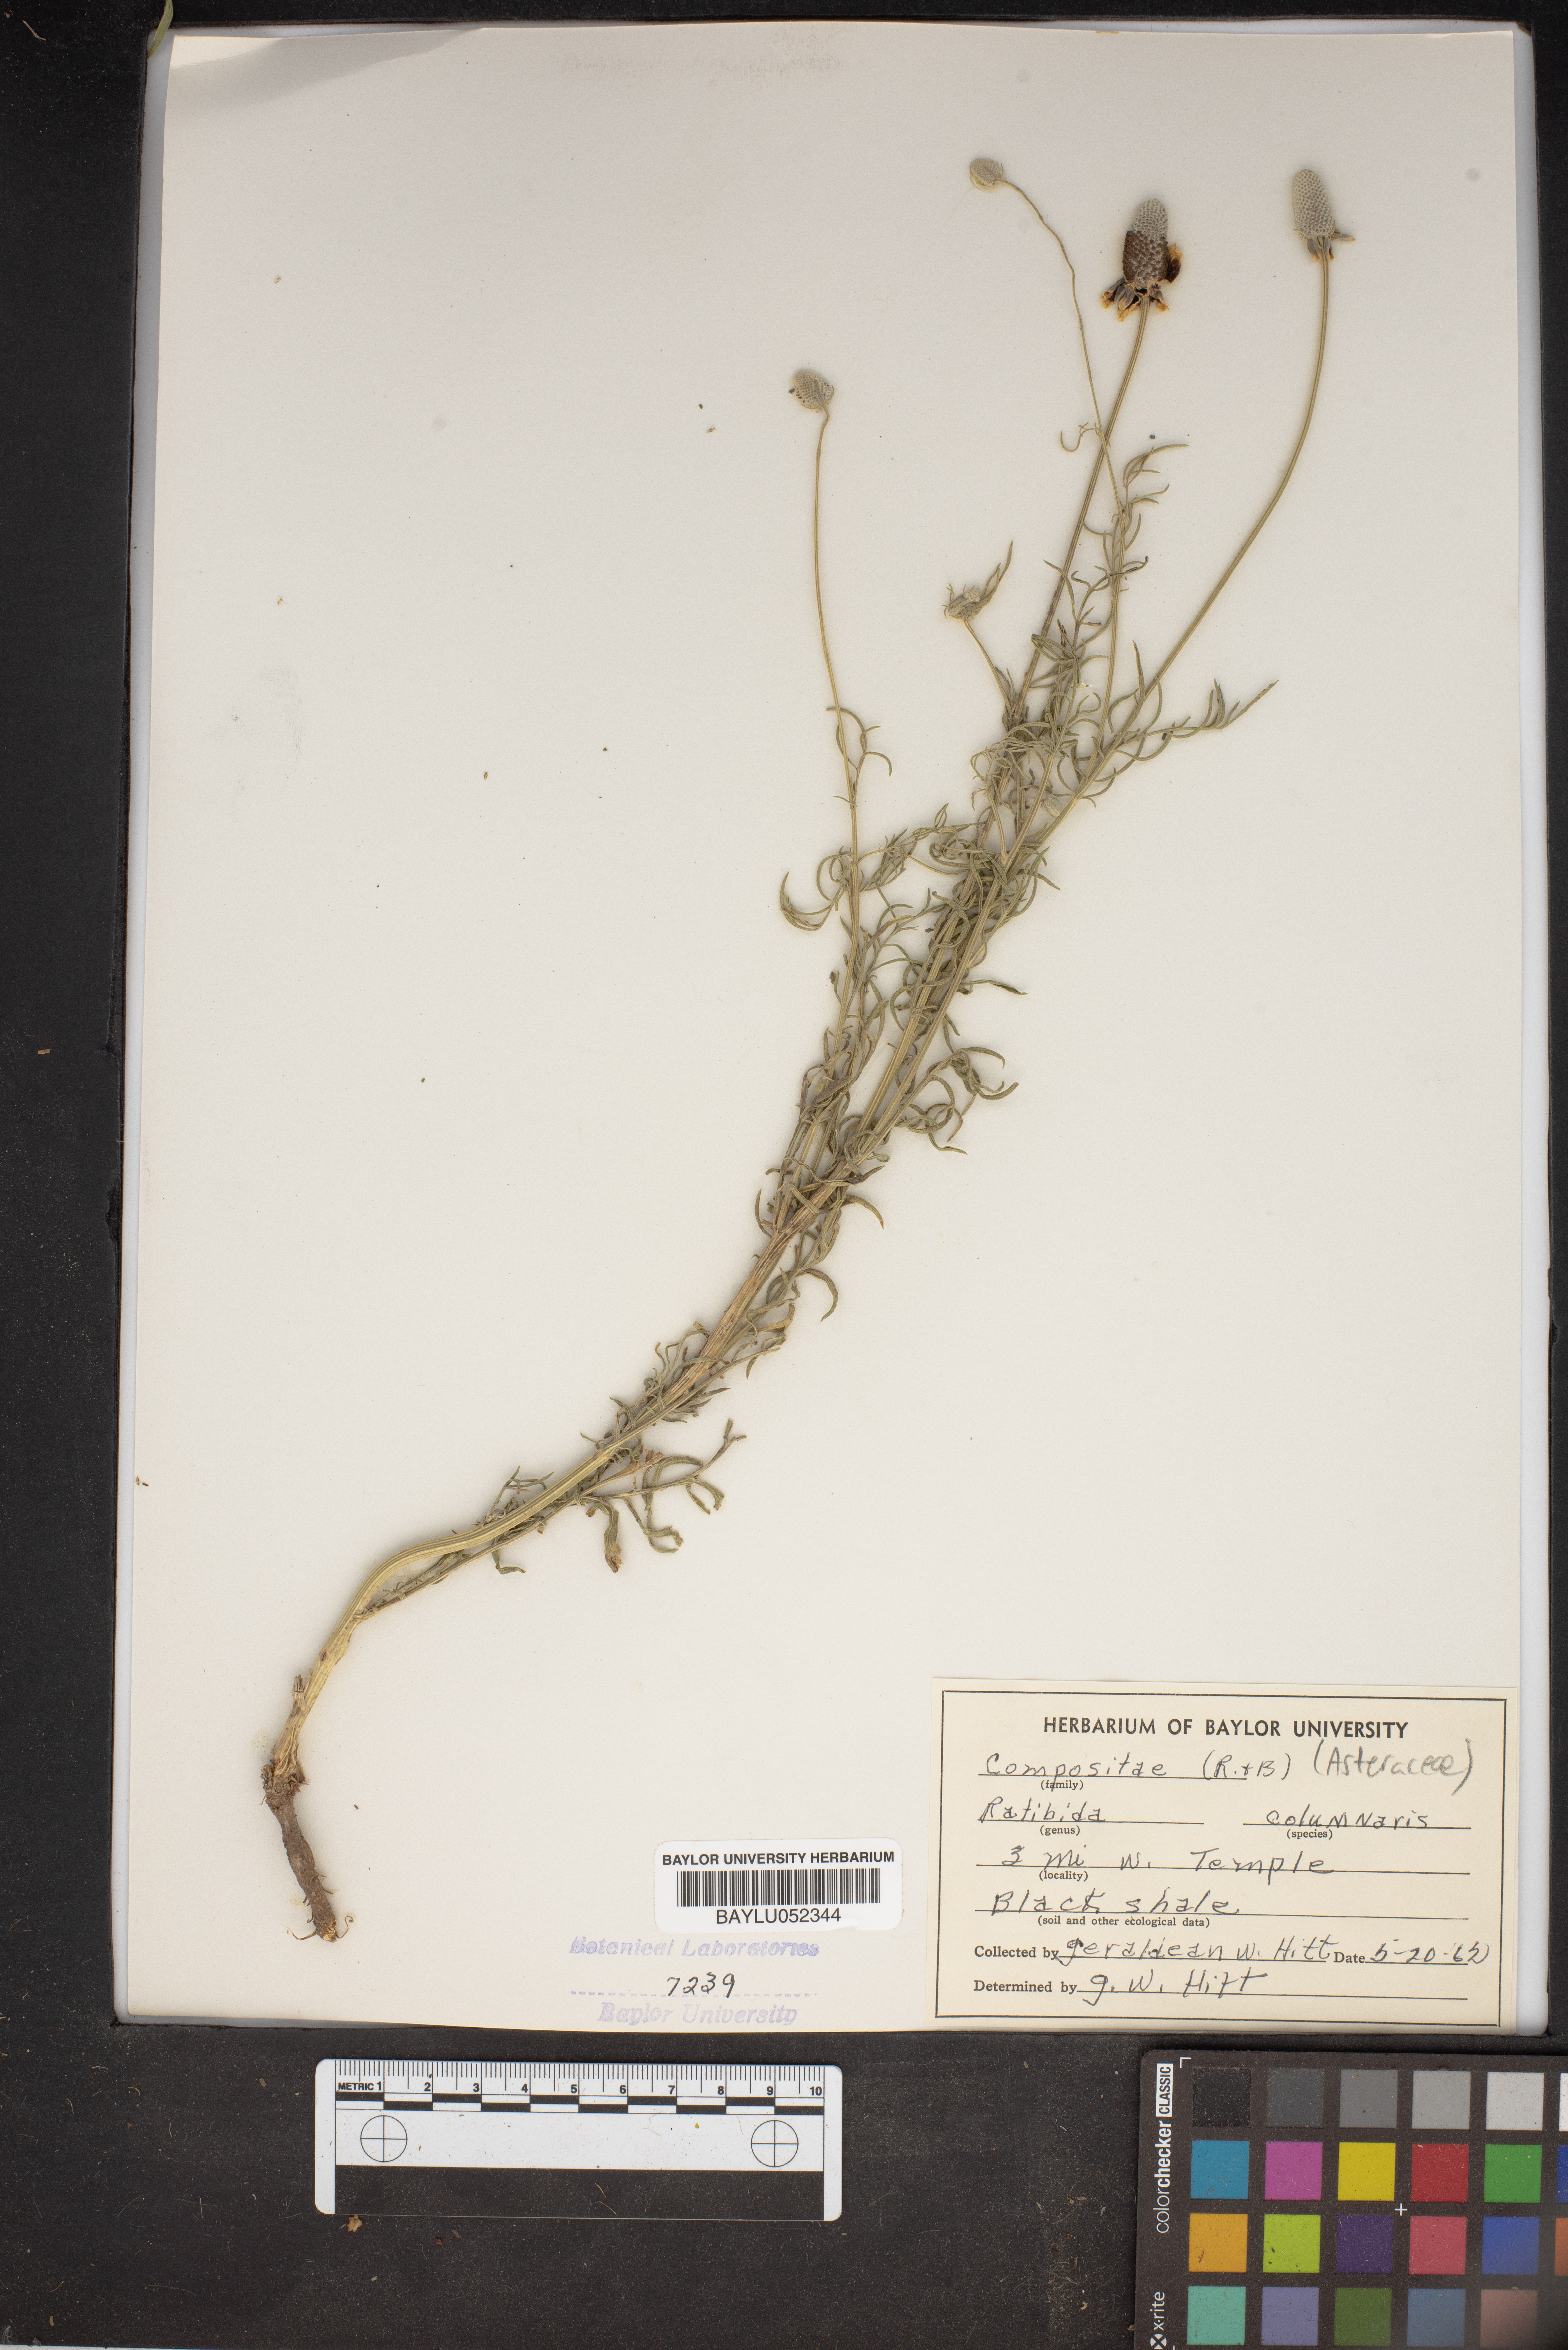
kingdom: Plantae
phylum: Tracheophyta
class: Magnoliopsida
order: Asterales
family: Asteraceae
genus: Ratibida
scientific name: Ratibida columnifera
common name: Prairie coneflower
